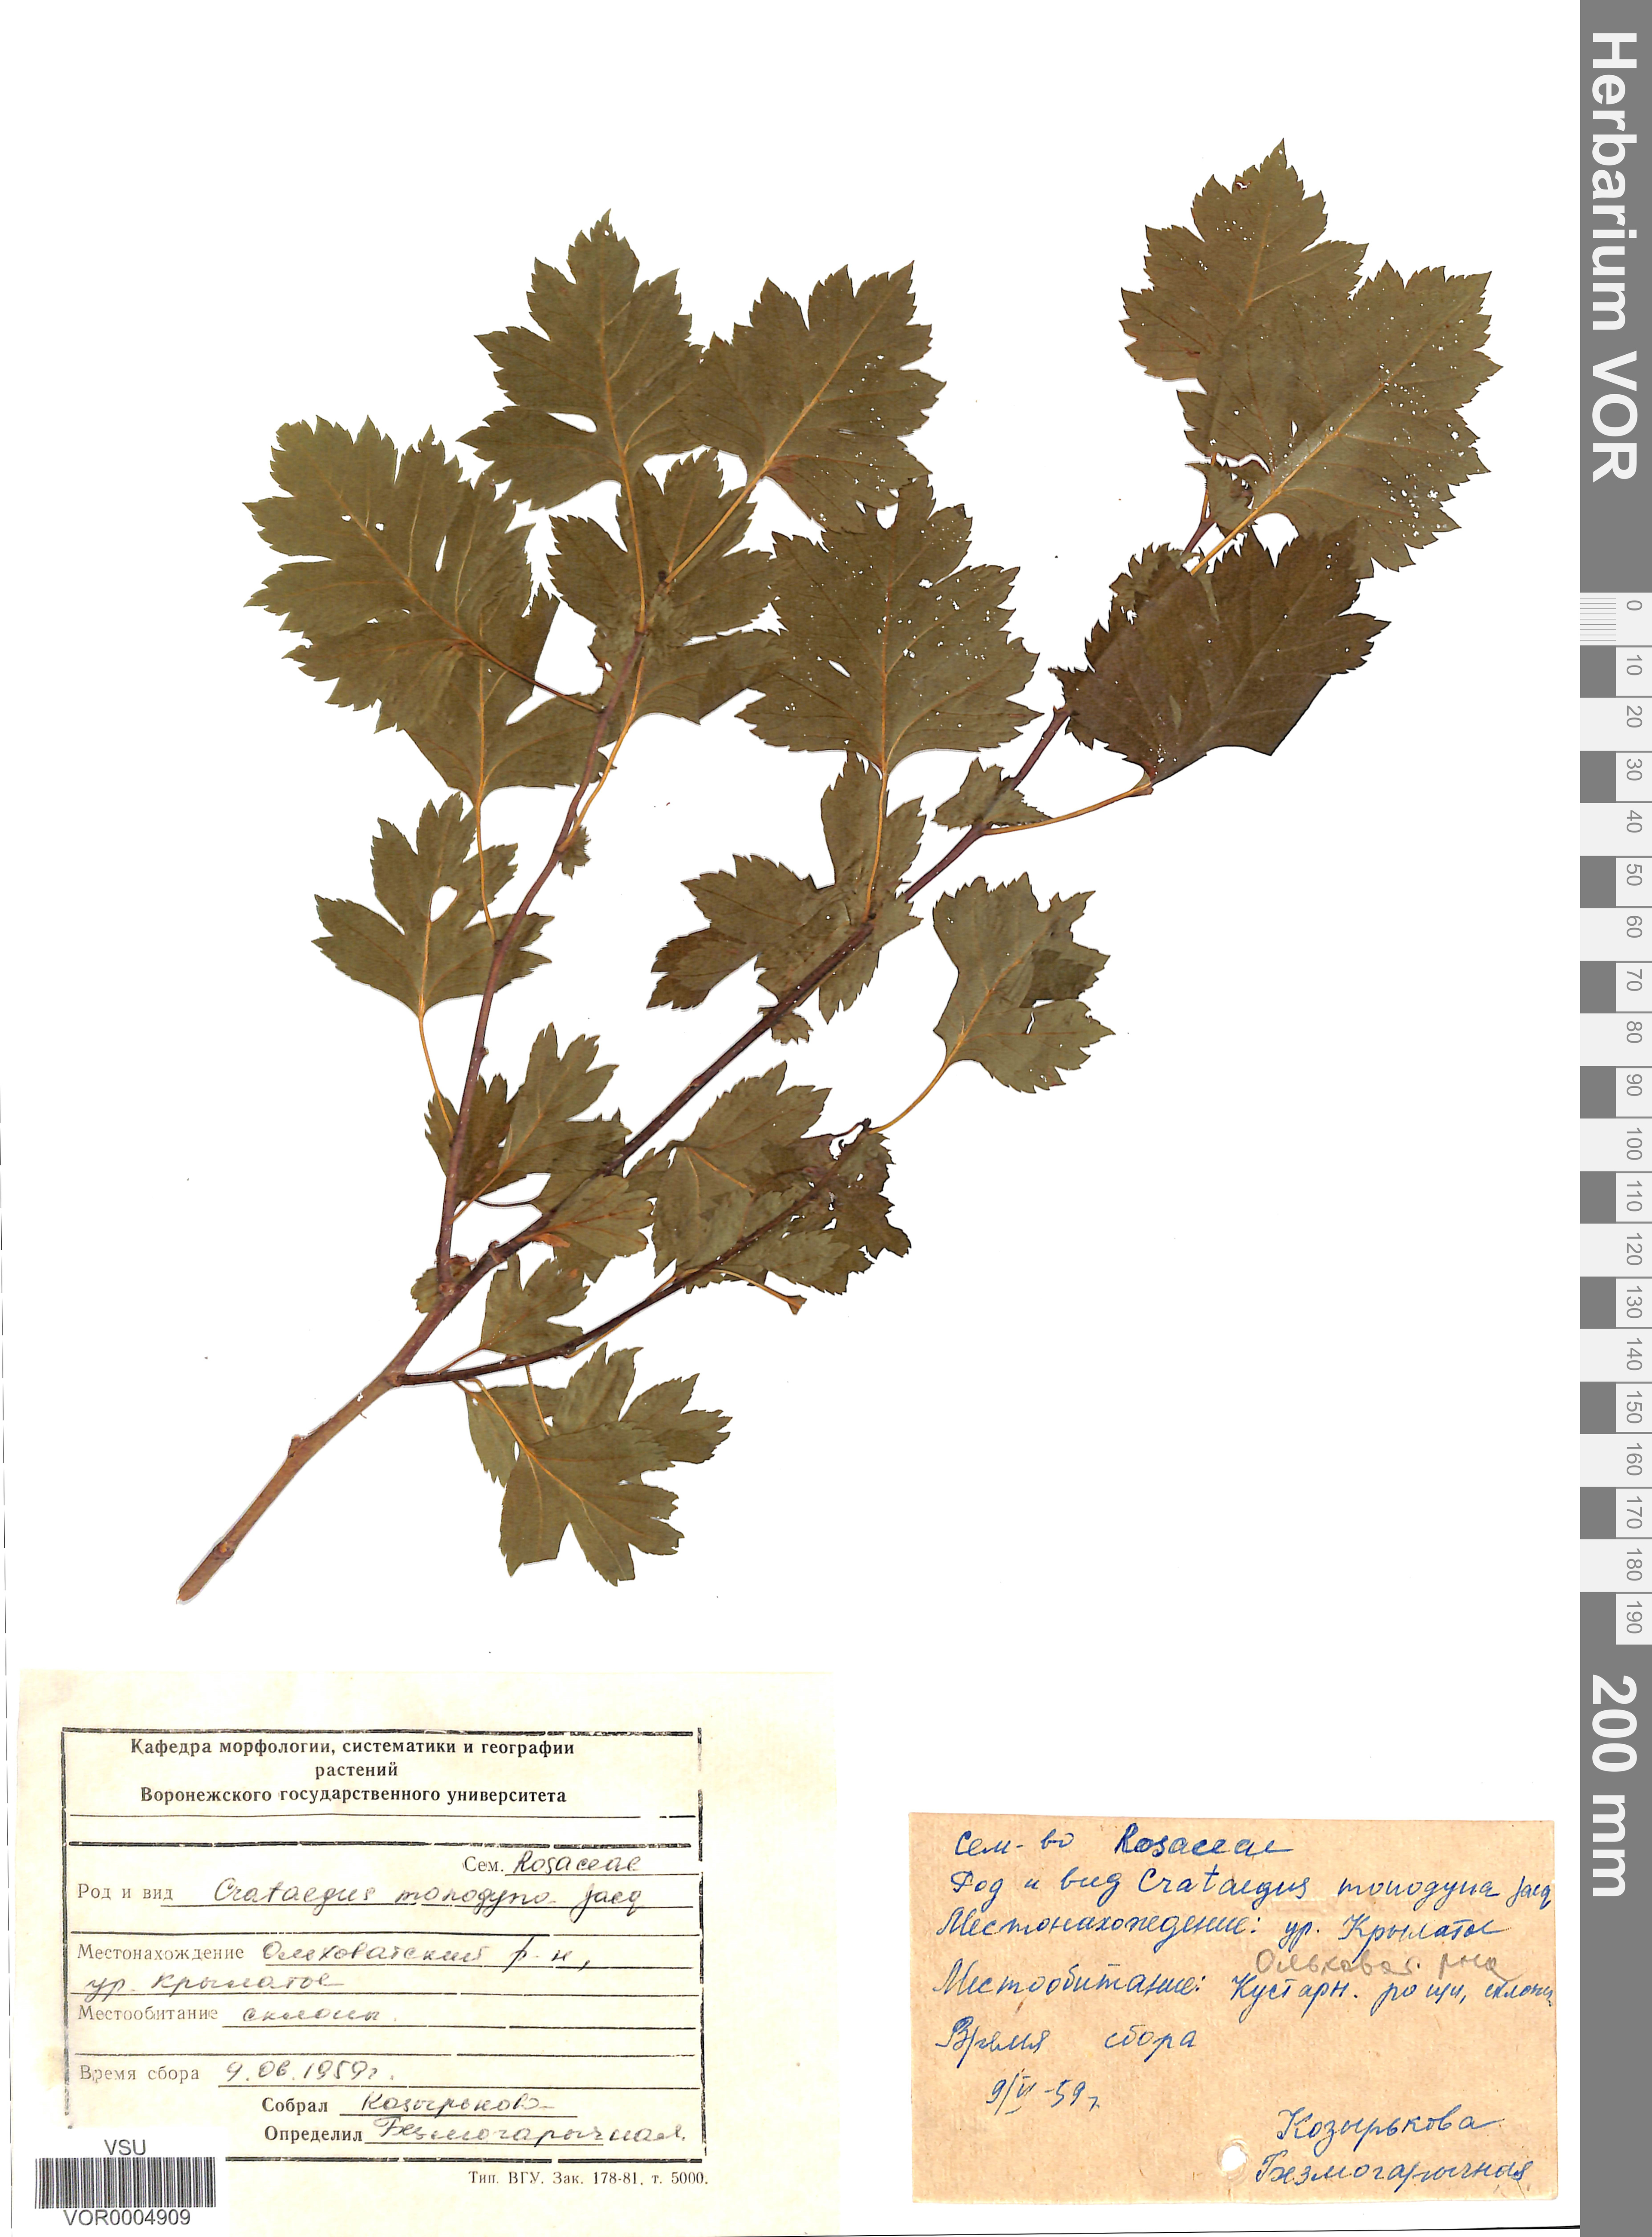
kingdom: Plantae
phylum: Tracheophyta
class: Magnoliopsida
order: Rosales
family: Rosaceae
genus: Crataegus
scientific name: Crataegus monogyna
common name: Hawthorn
